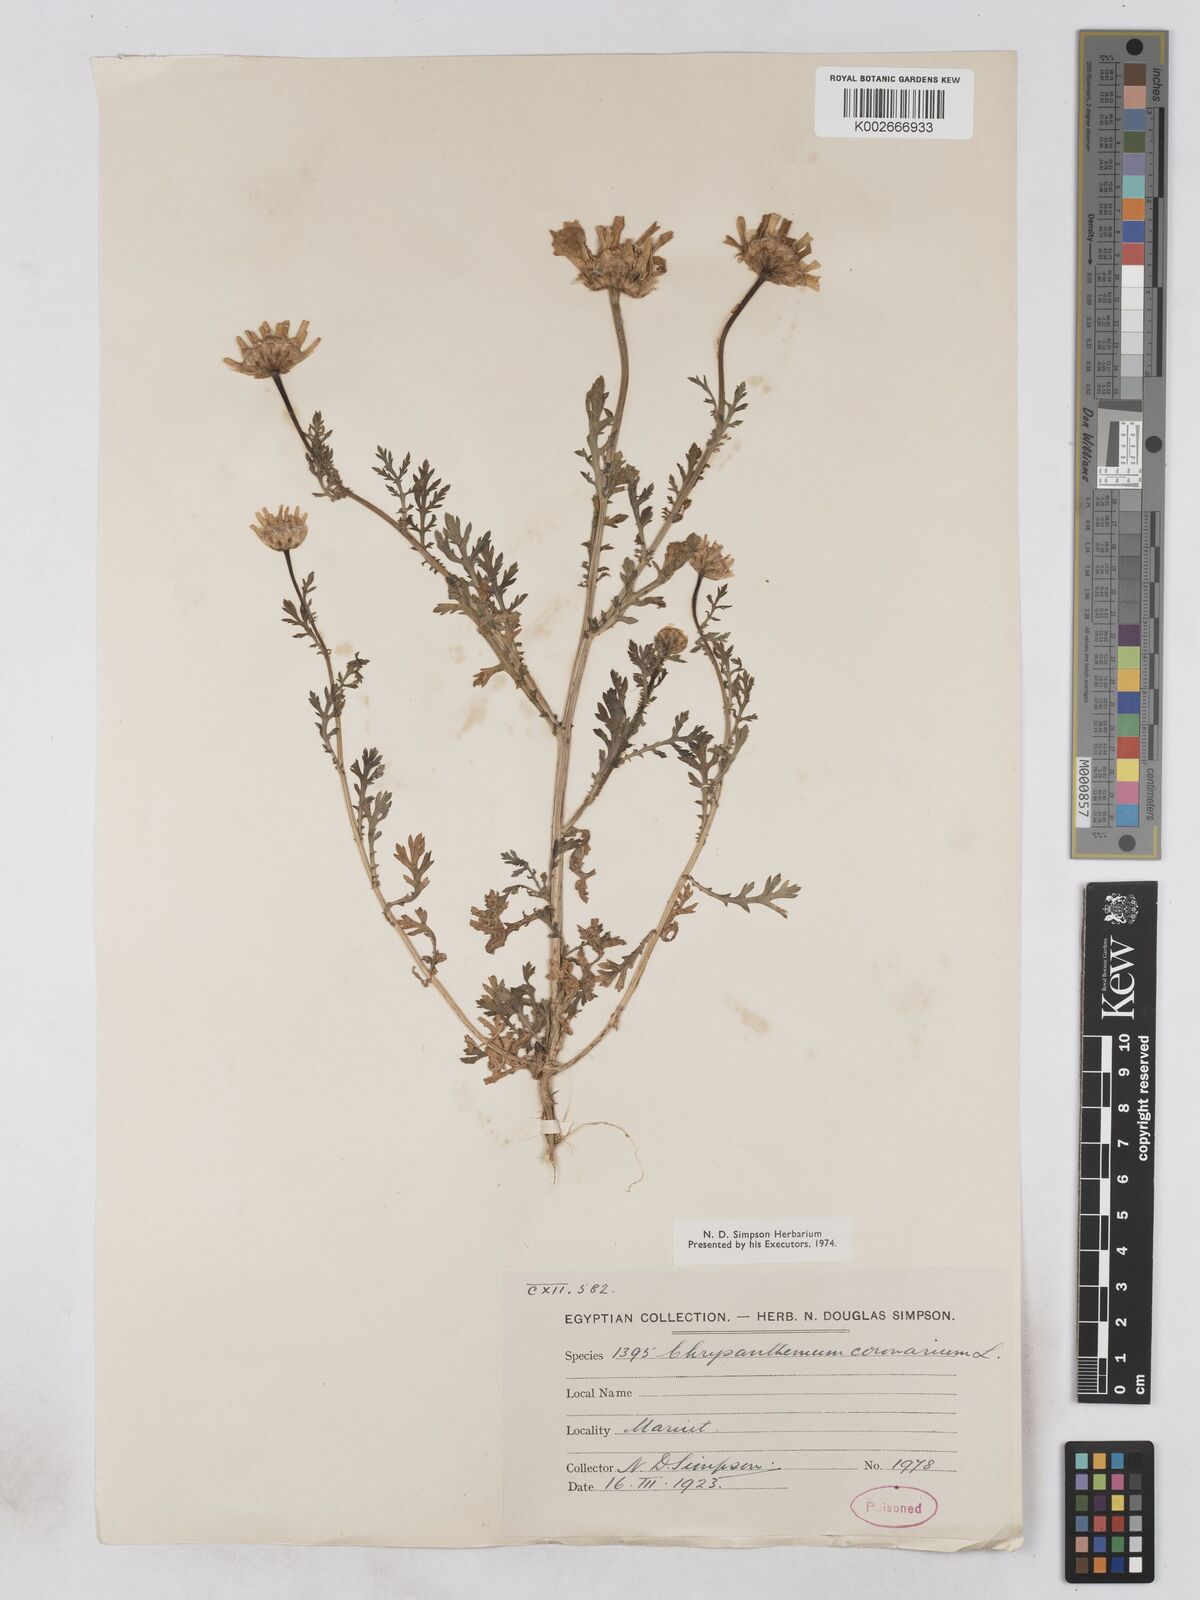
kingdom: Plantae
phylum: Tracheophyta
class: Magnoliopsida
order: Asterales
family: Asteraceae
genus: Glebionis
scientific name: Glebionis coronaria
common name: Crowndaisy
